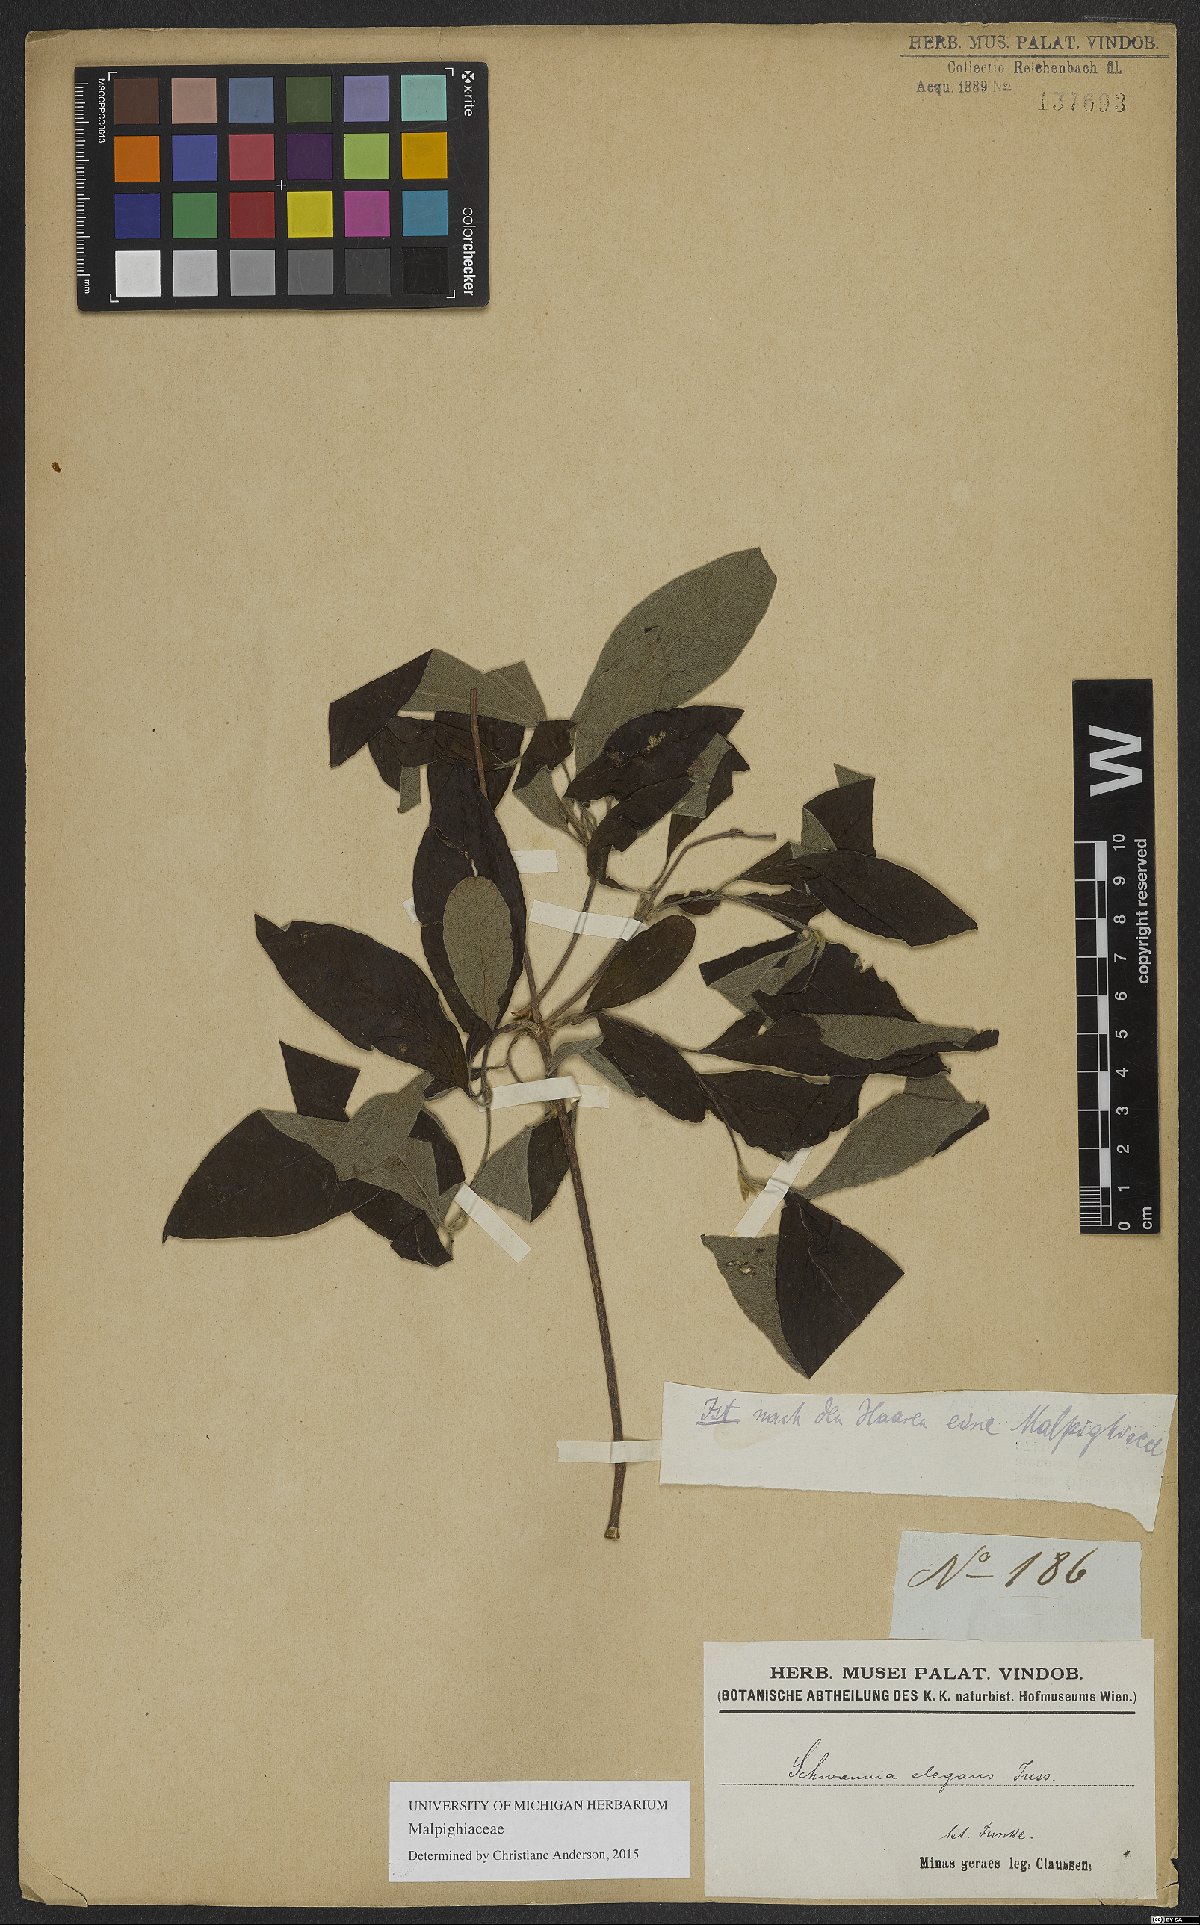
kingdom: Plantae
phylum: Tracheophyta
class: Magnoliopsida
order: Malpighiales
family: Malpighiaceae
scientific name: Malpighiaceae
